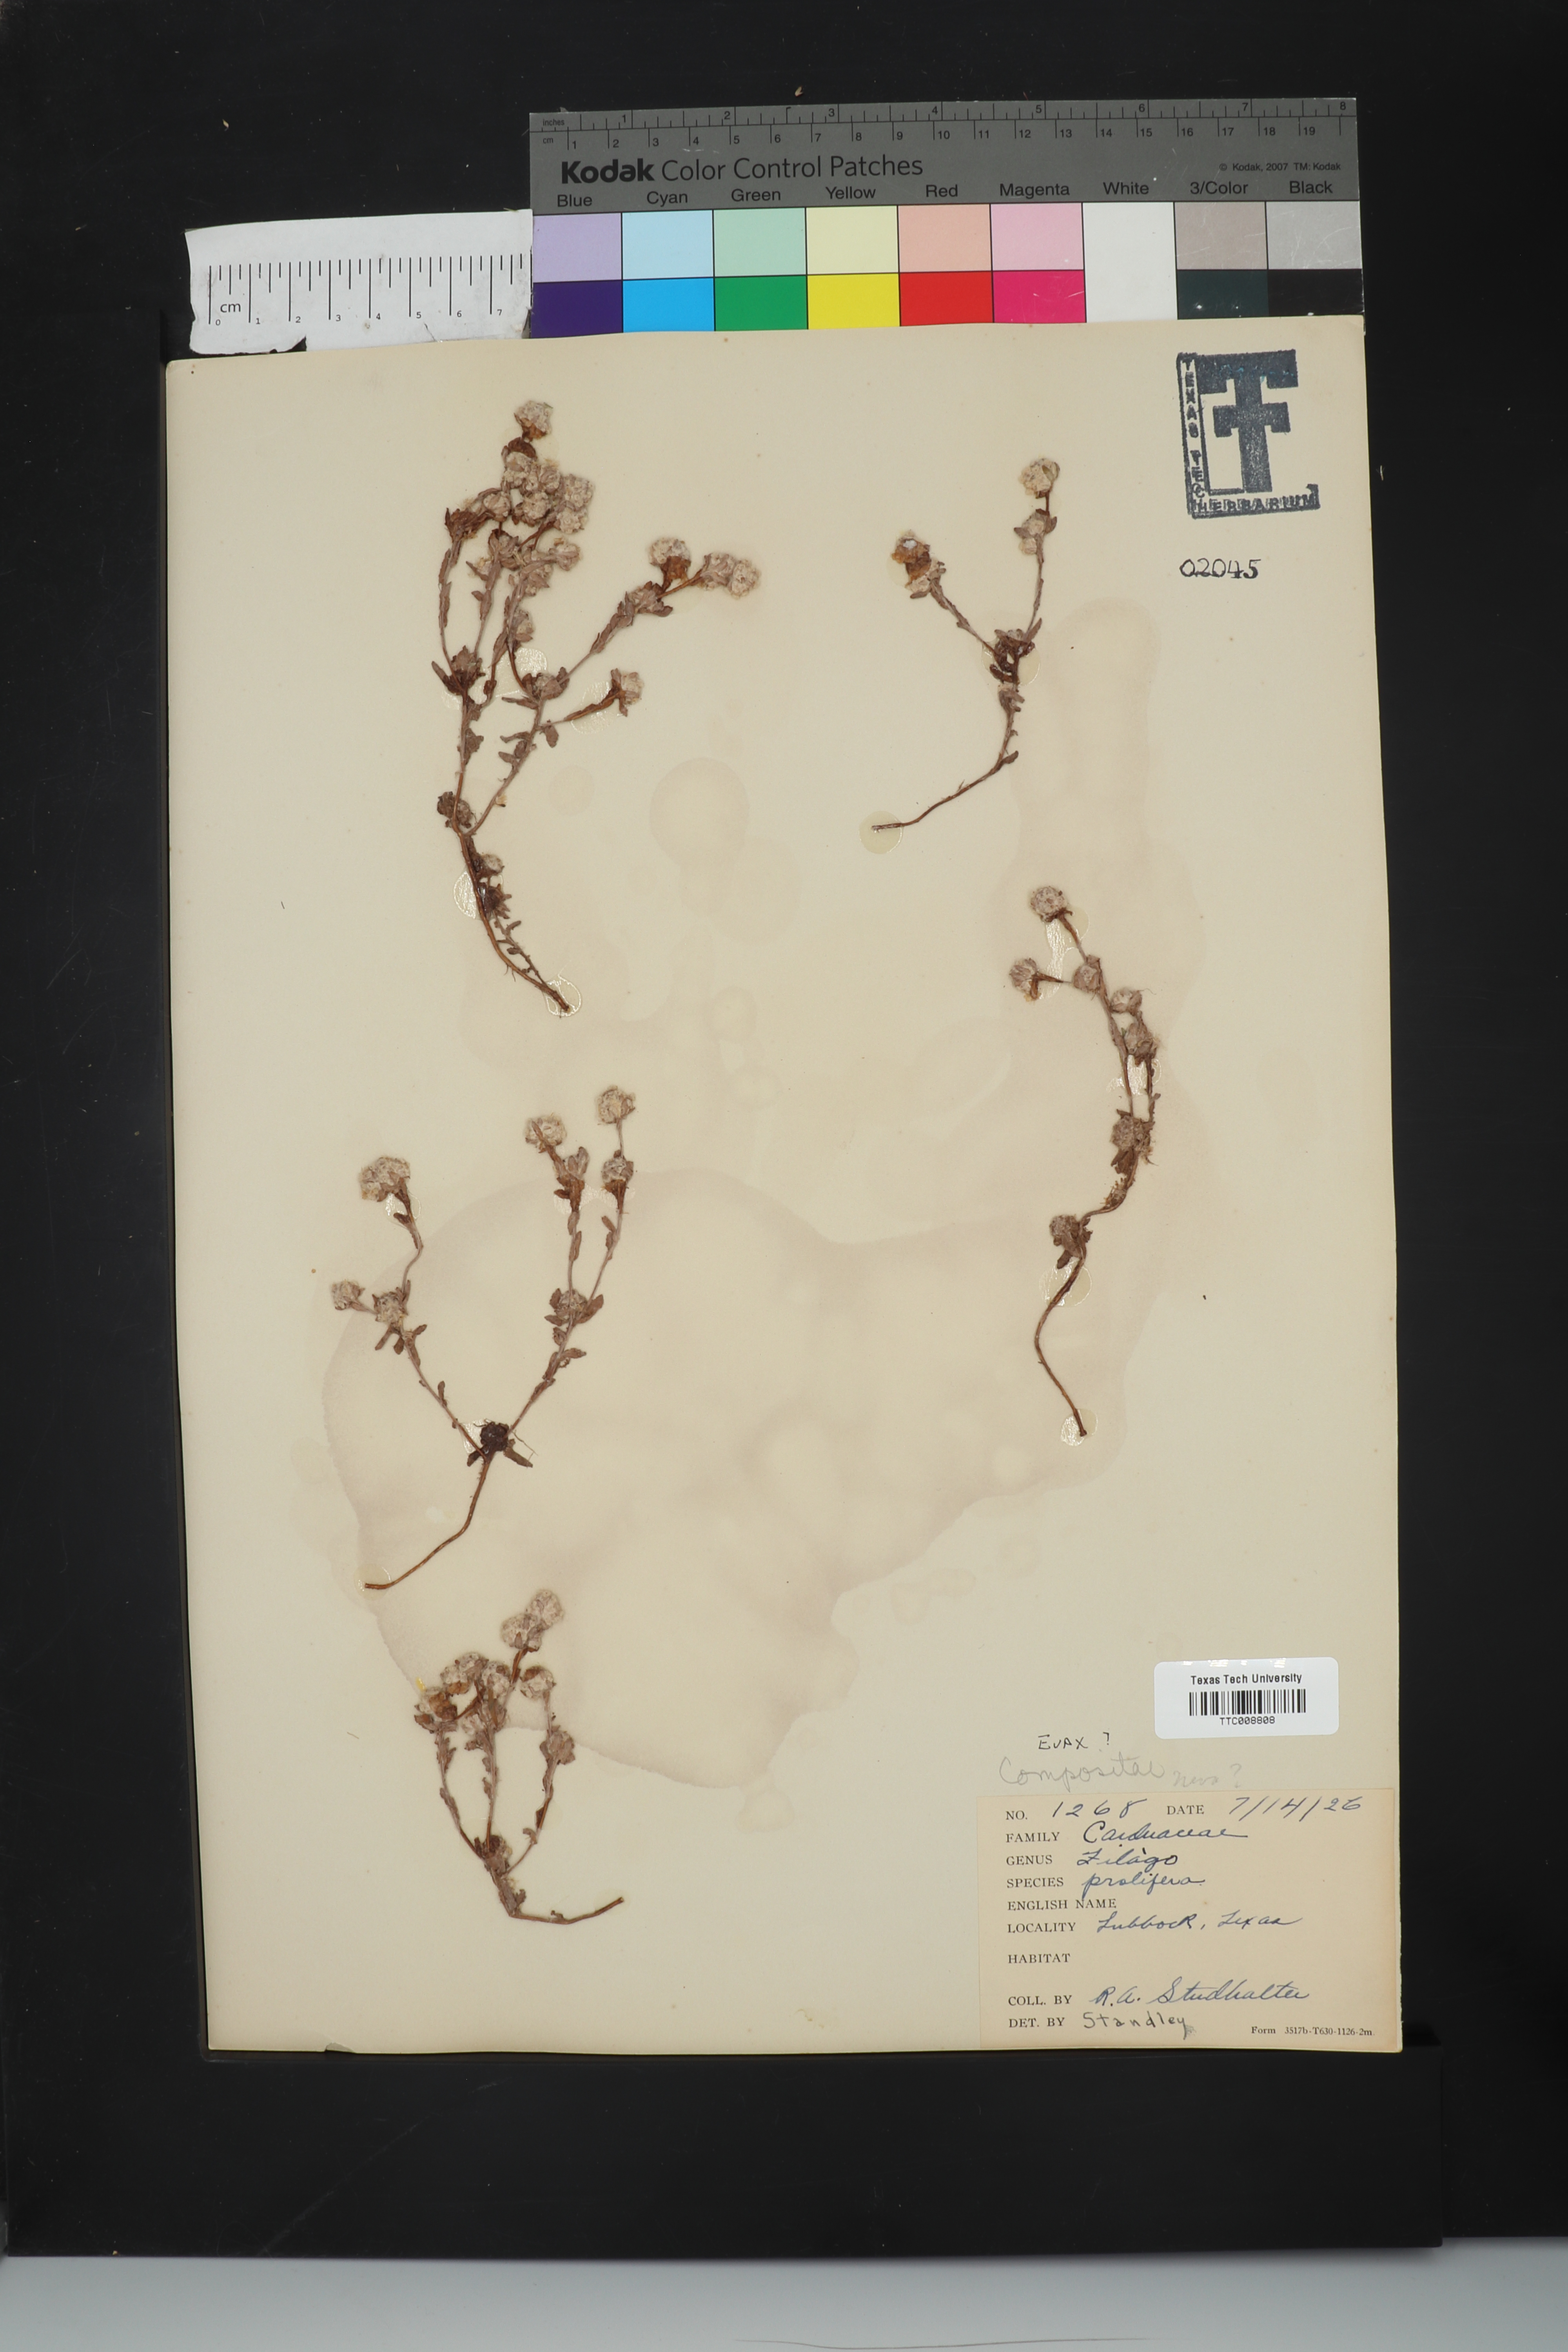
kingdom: Plantae
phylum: Tracheophyta
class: Magnoliopsida
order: Asterales
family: Asteraceae
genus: Diaperia
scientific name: Diaperia prolifera
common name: Big-head rabbit-tobacco
